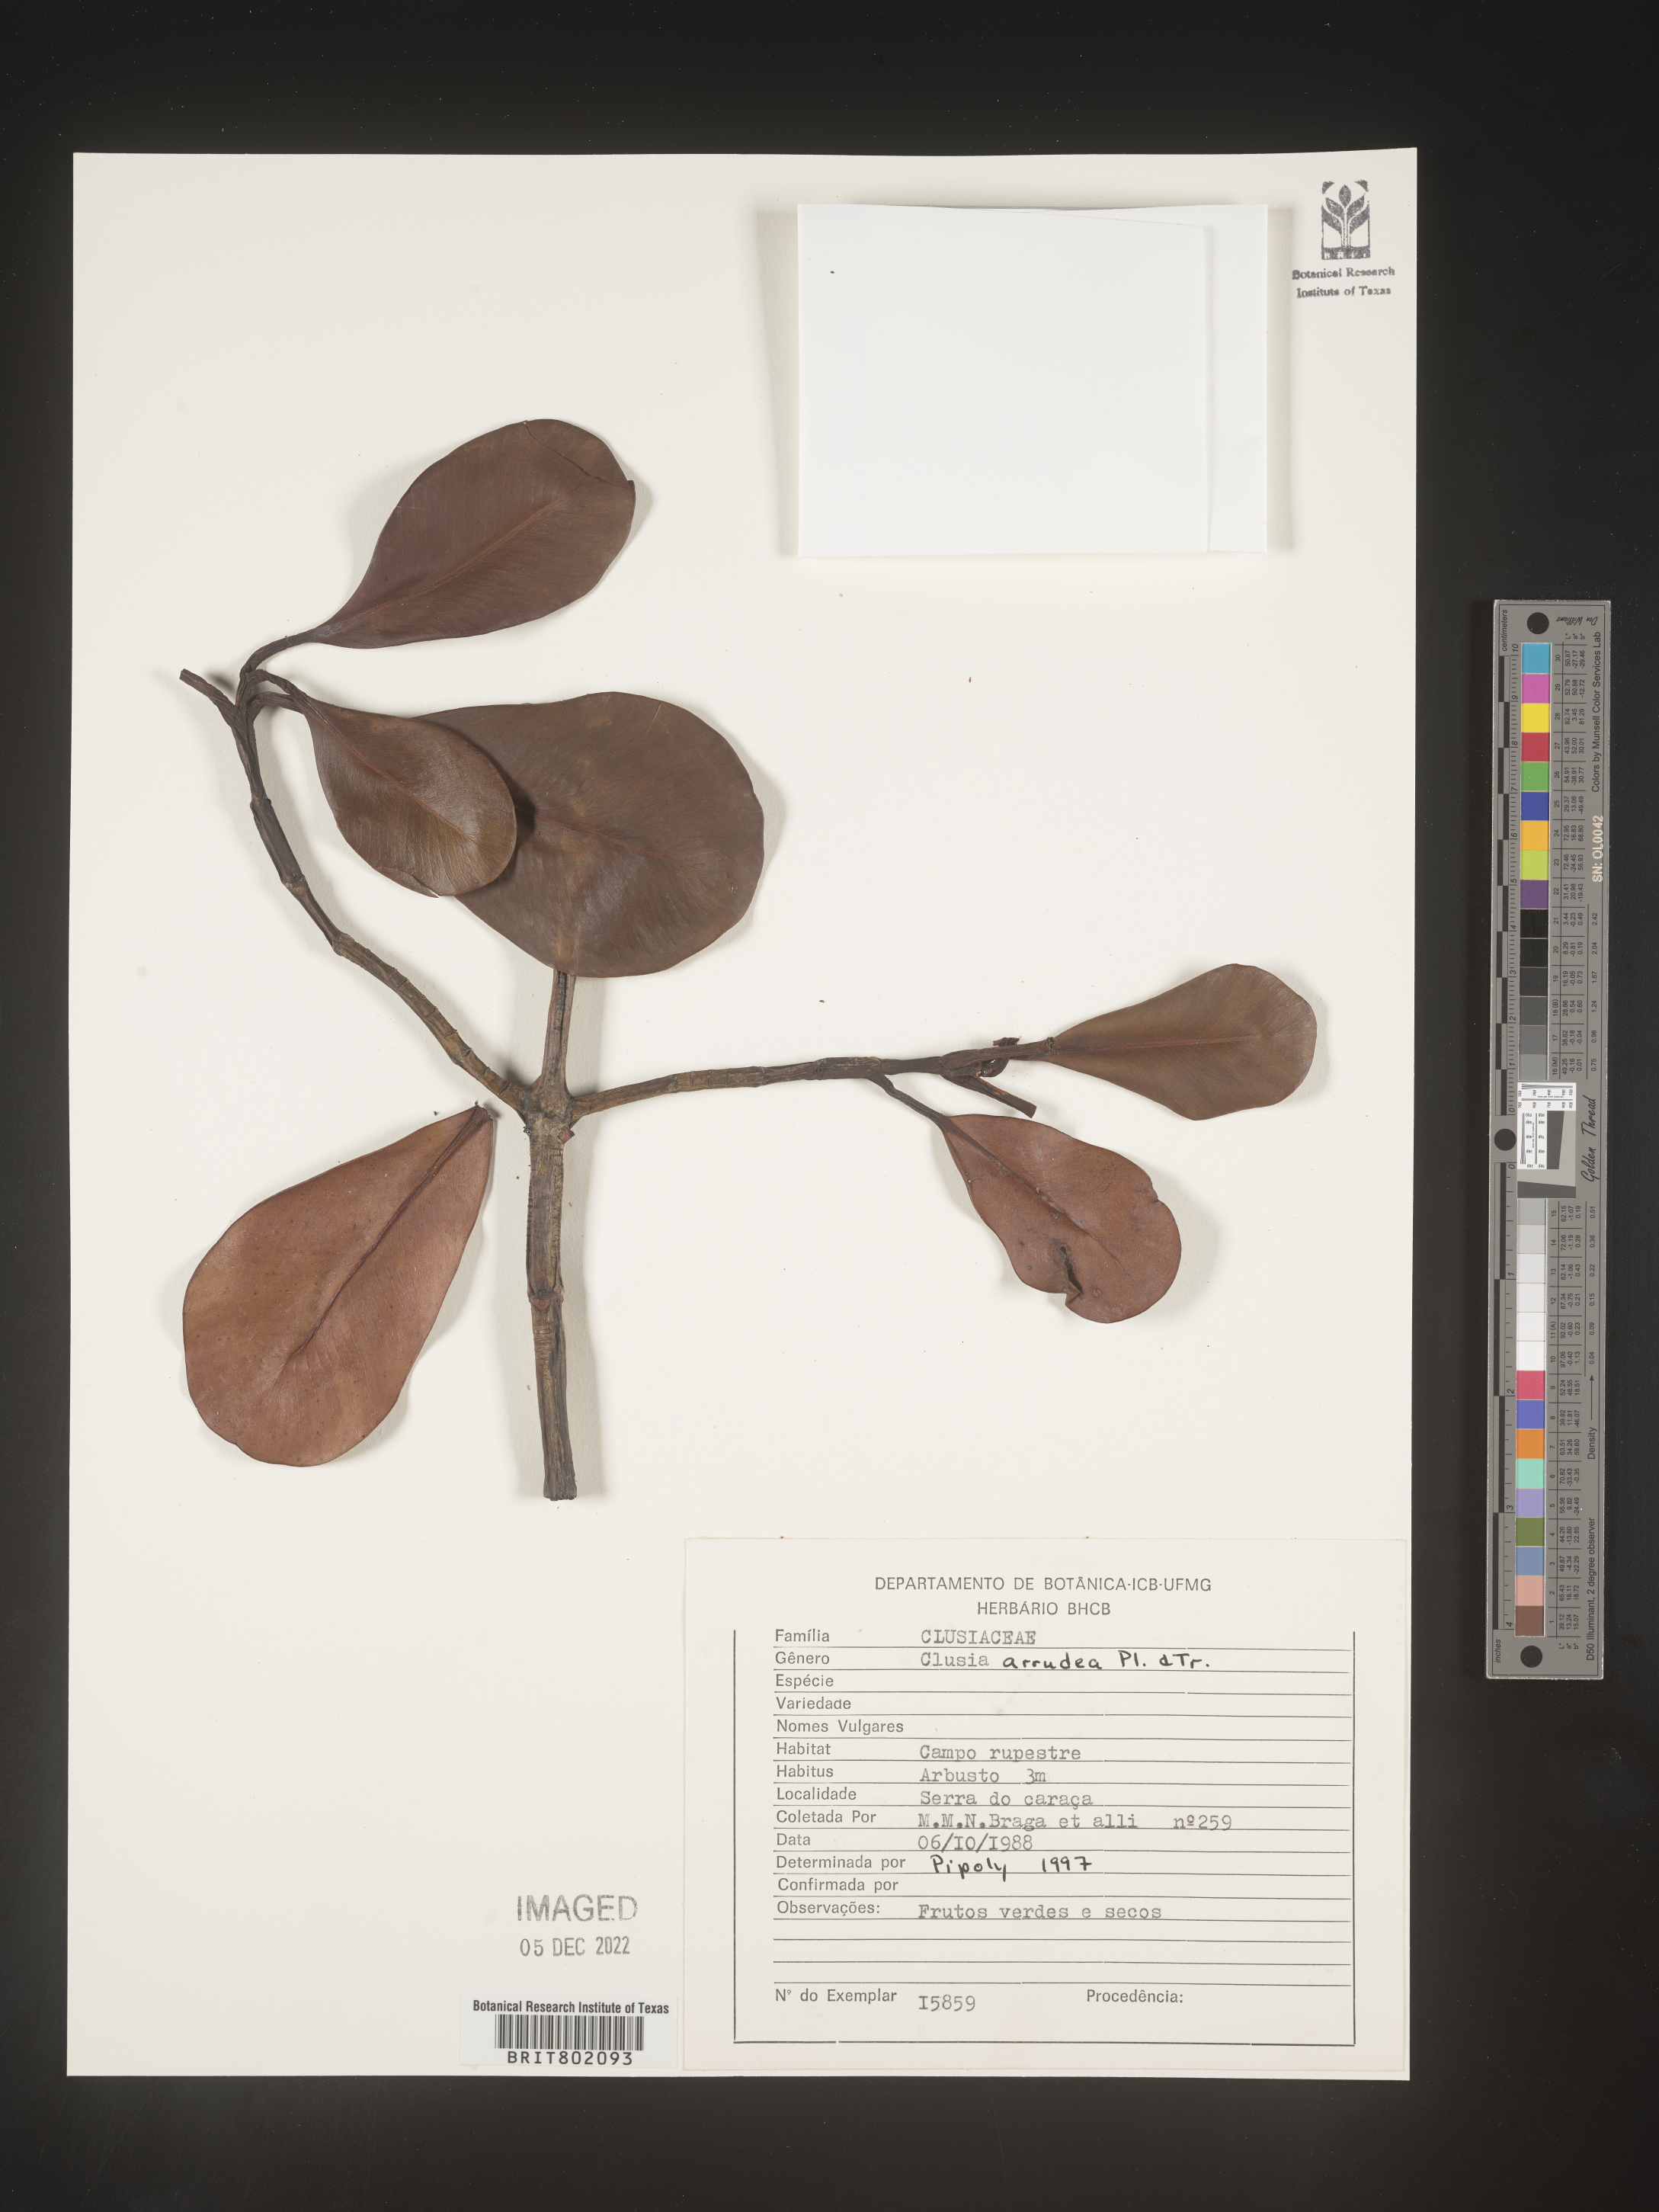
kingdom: Plantae
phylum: Tracheophyta
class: Magnoliopsida
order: Malpighiales
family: Clusiaceae
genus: Clusia
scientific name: Clusia mexiae
